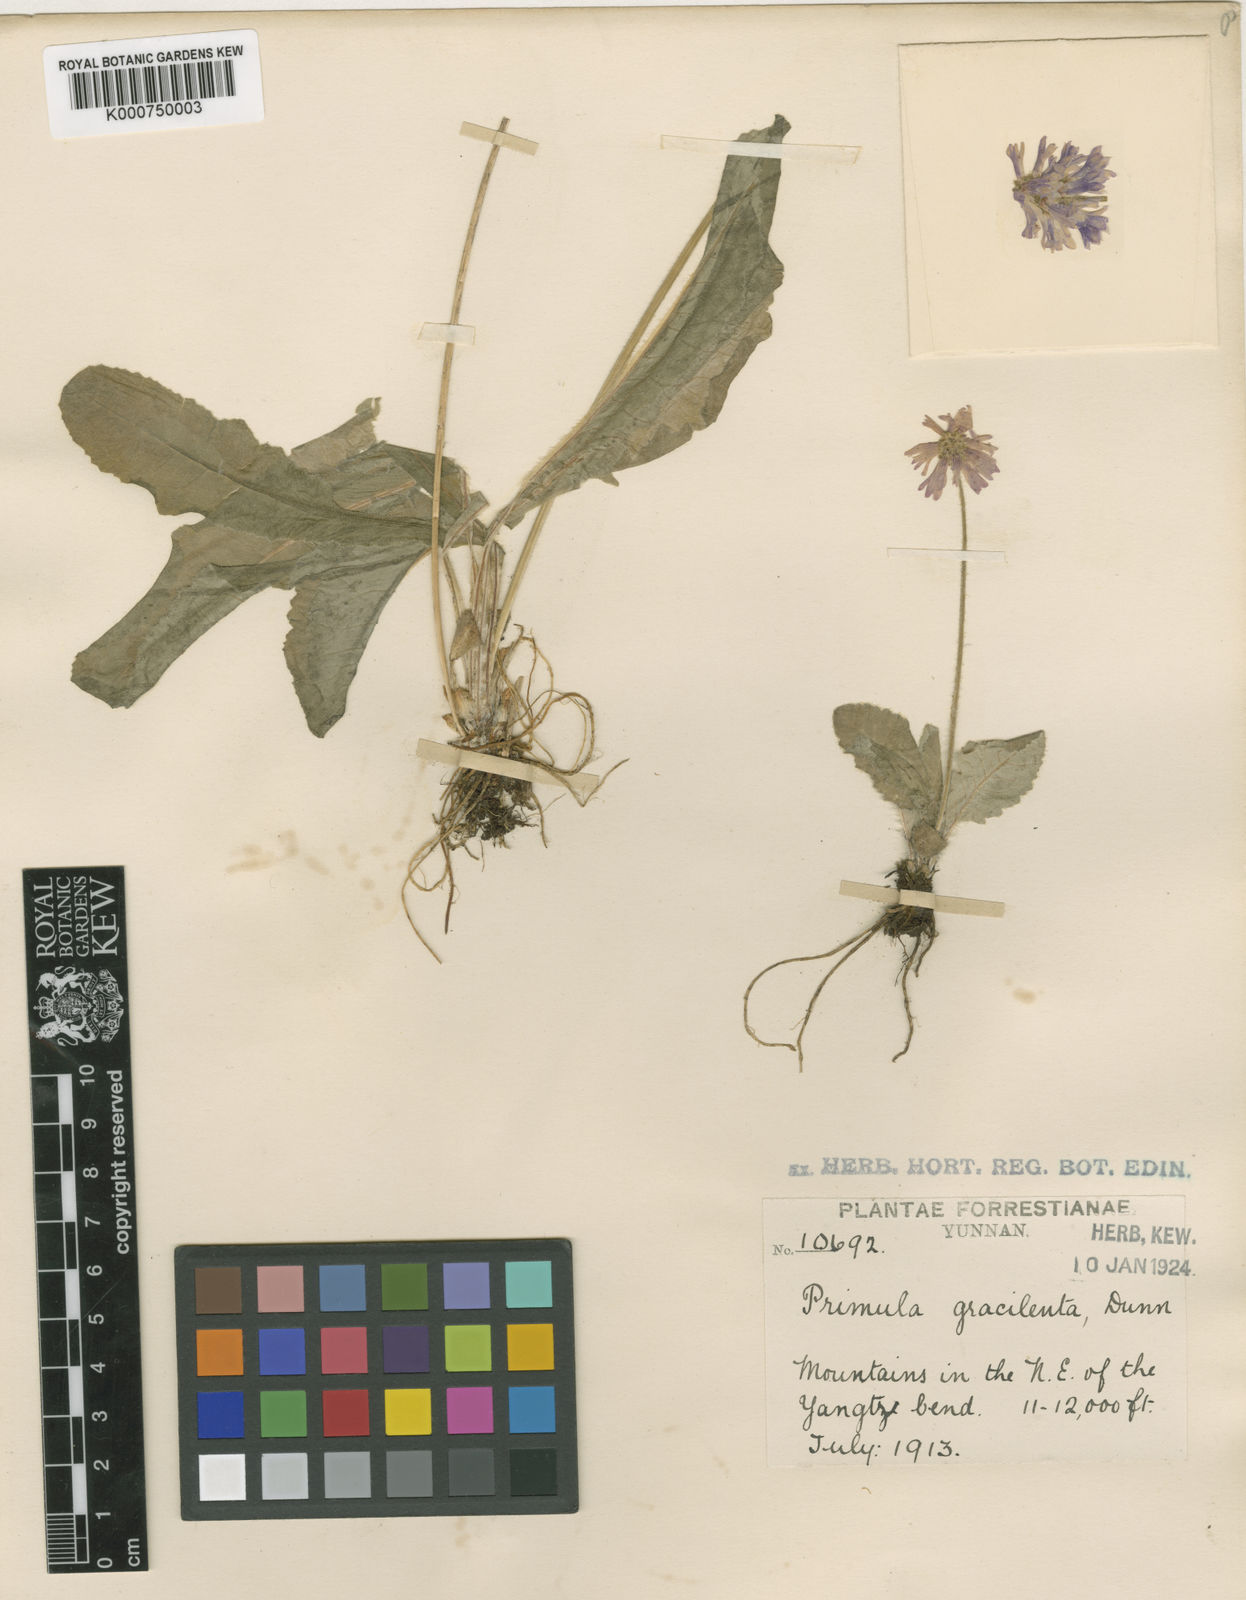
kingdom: Plantae
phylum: Tracheophyta
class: Magnoliopsida
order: Ericales
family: Primulaceae
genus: Primula
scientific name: Primula gracilenta
